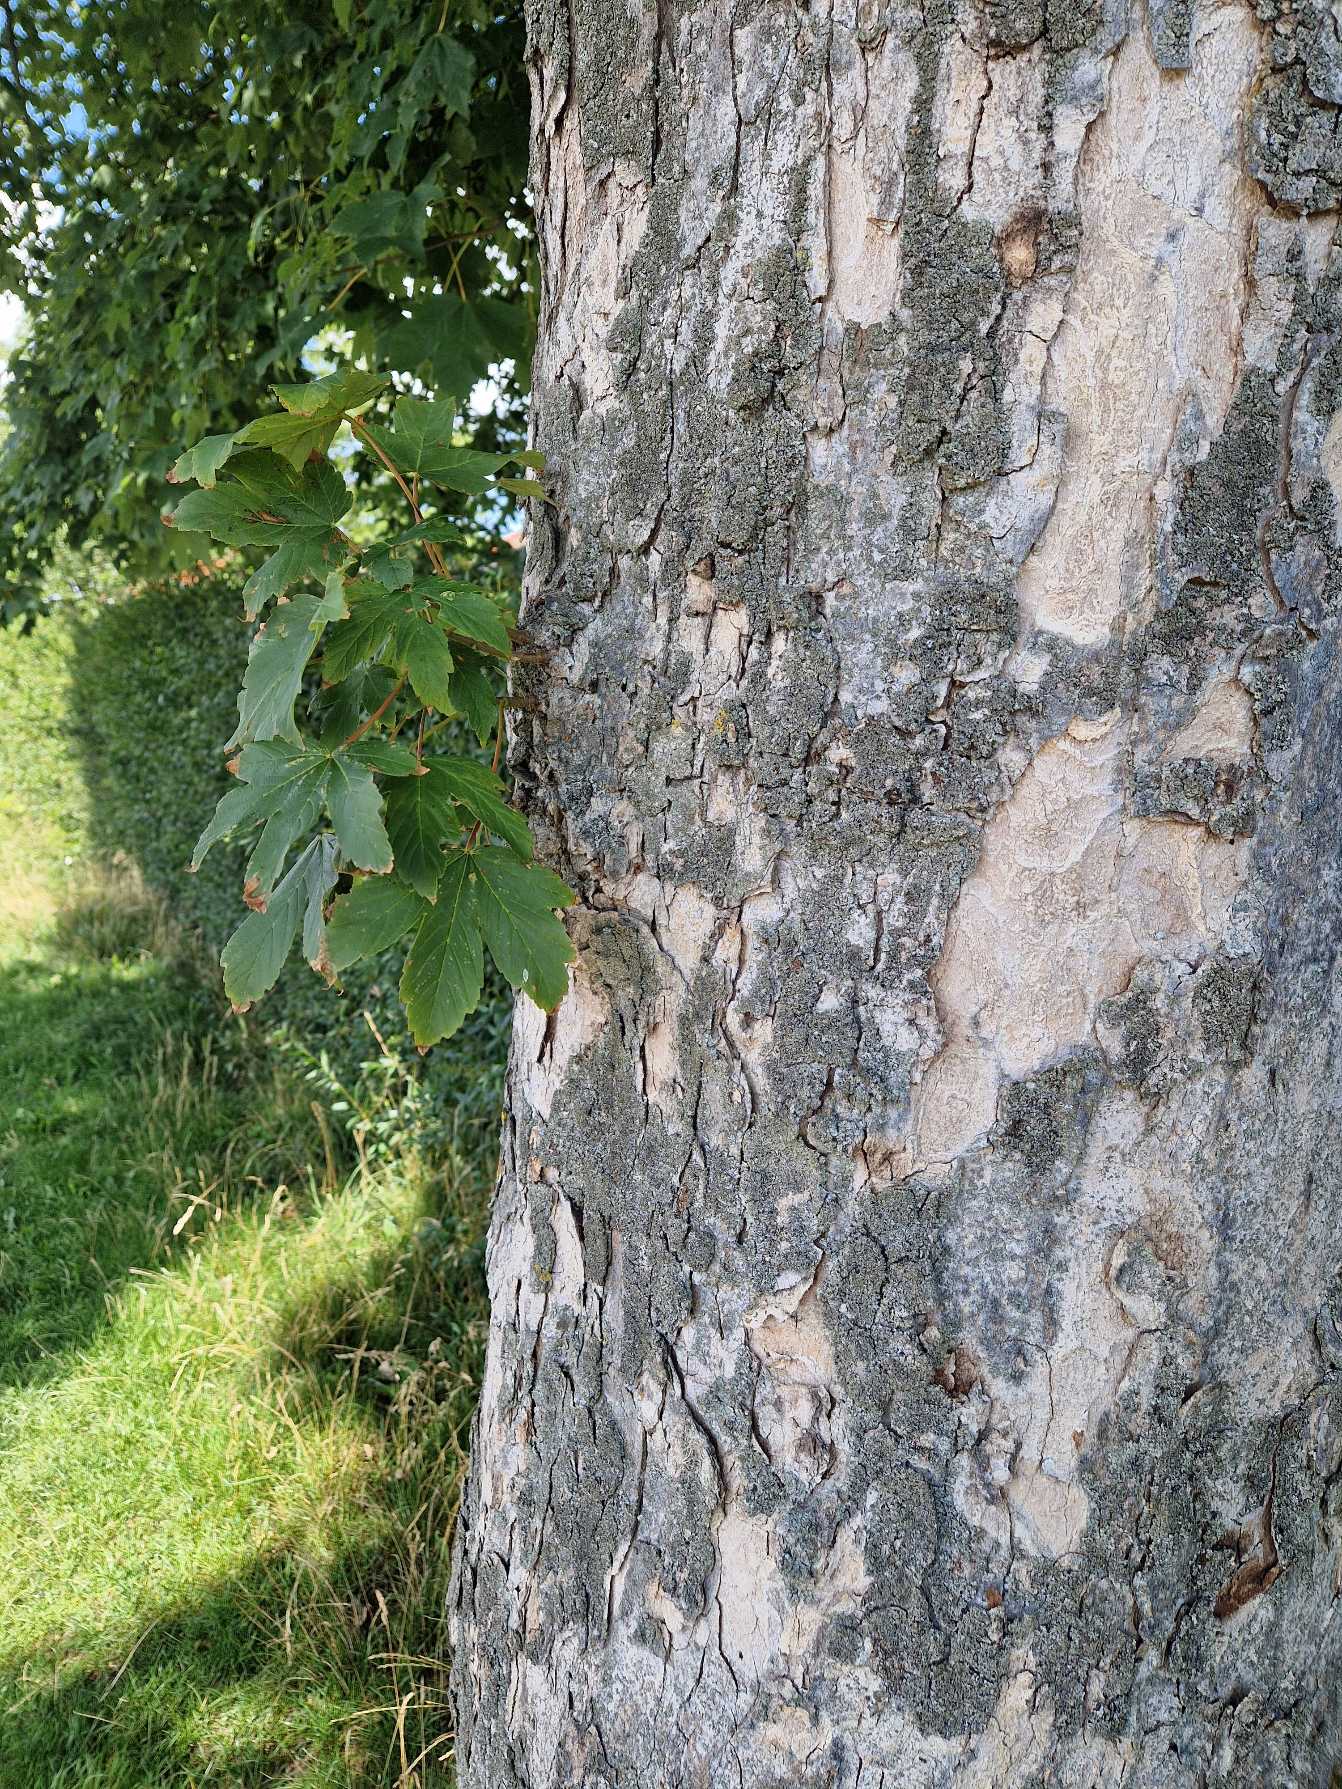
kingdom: Plantae
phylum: Tracheophyta
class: Magnoliopsida
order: Sapindales
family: Sapindaceae
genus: Acer
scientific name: Acer pseudoplatanus
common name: Ahorn
